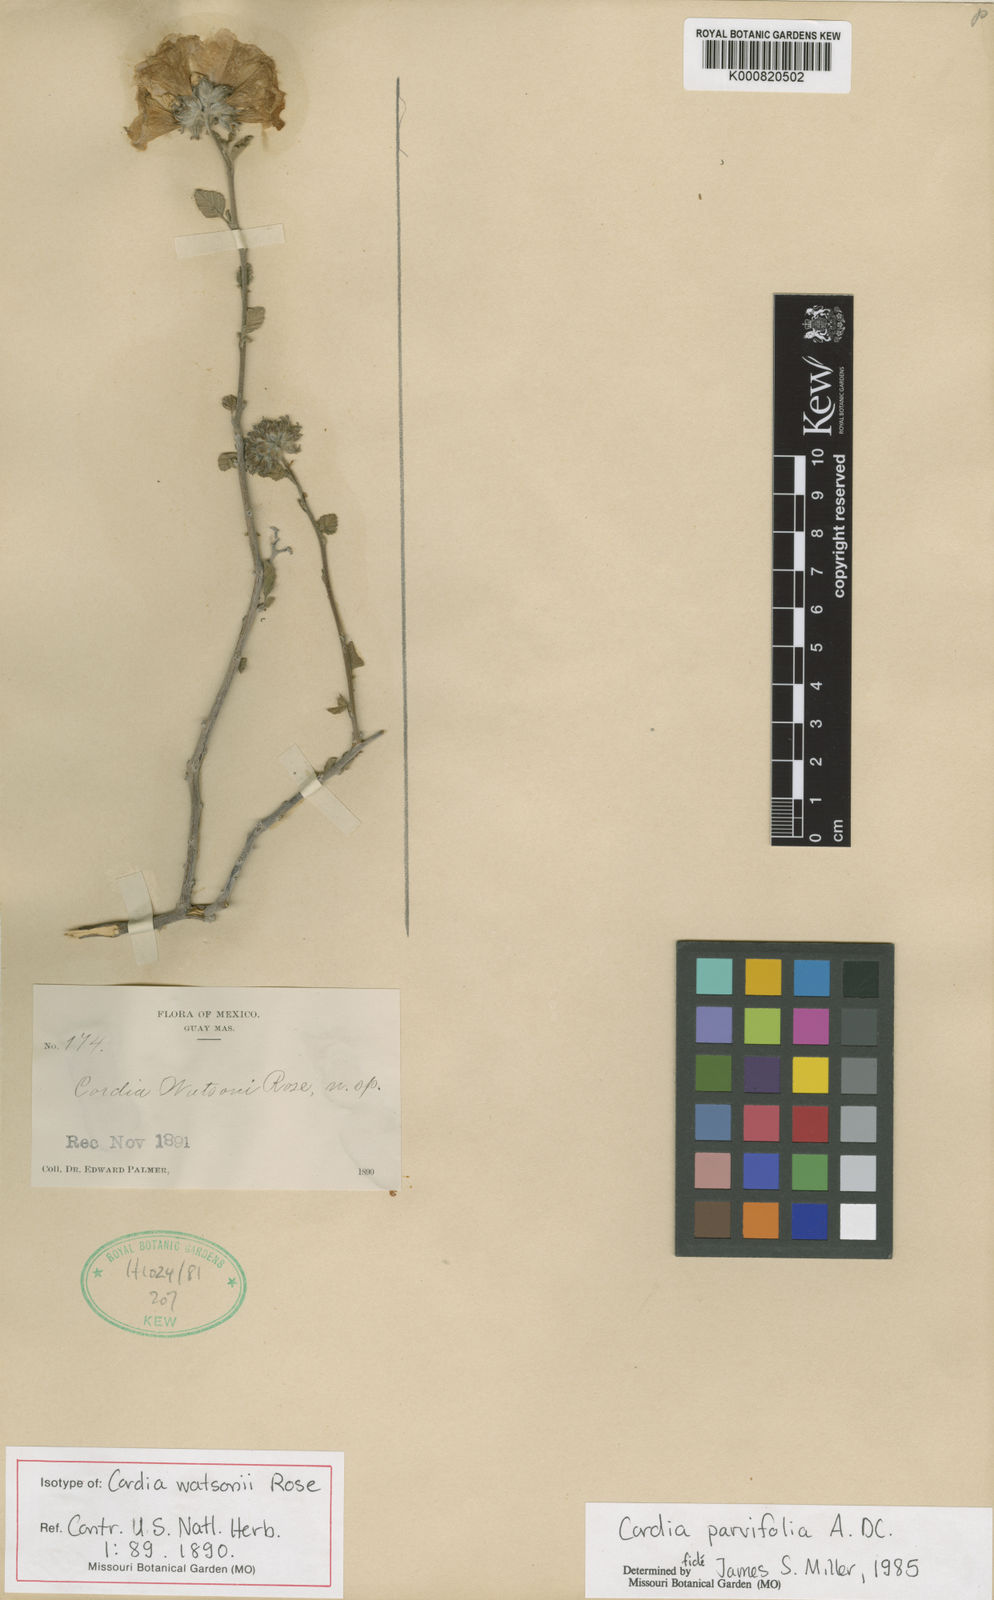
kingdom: Plantae
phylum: Tracheophyta
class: Magnoliopsida
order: Boraginales
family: Cordiaceae
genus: Cordia
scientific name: Cordia parvifolia
